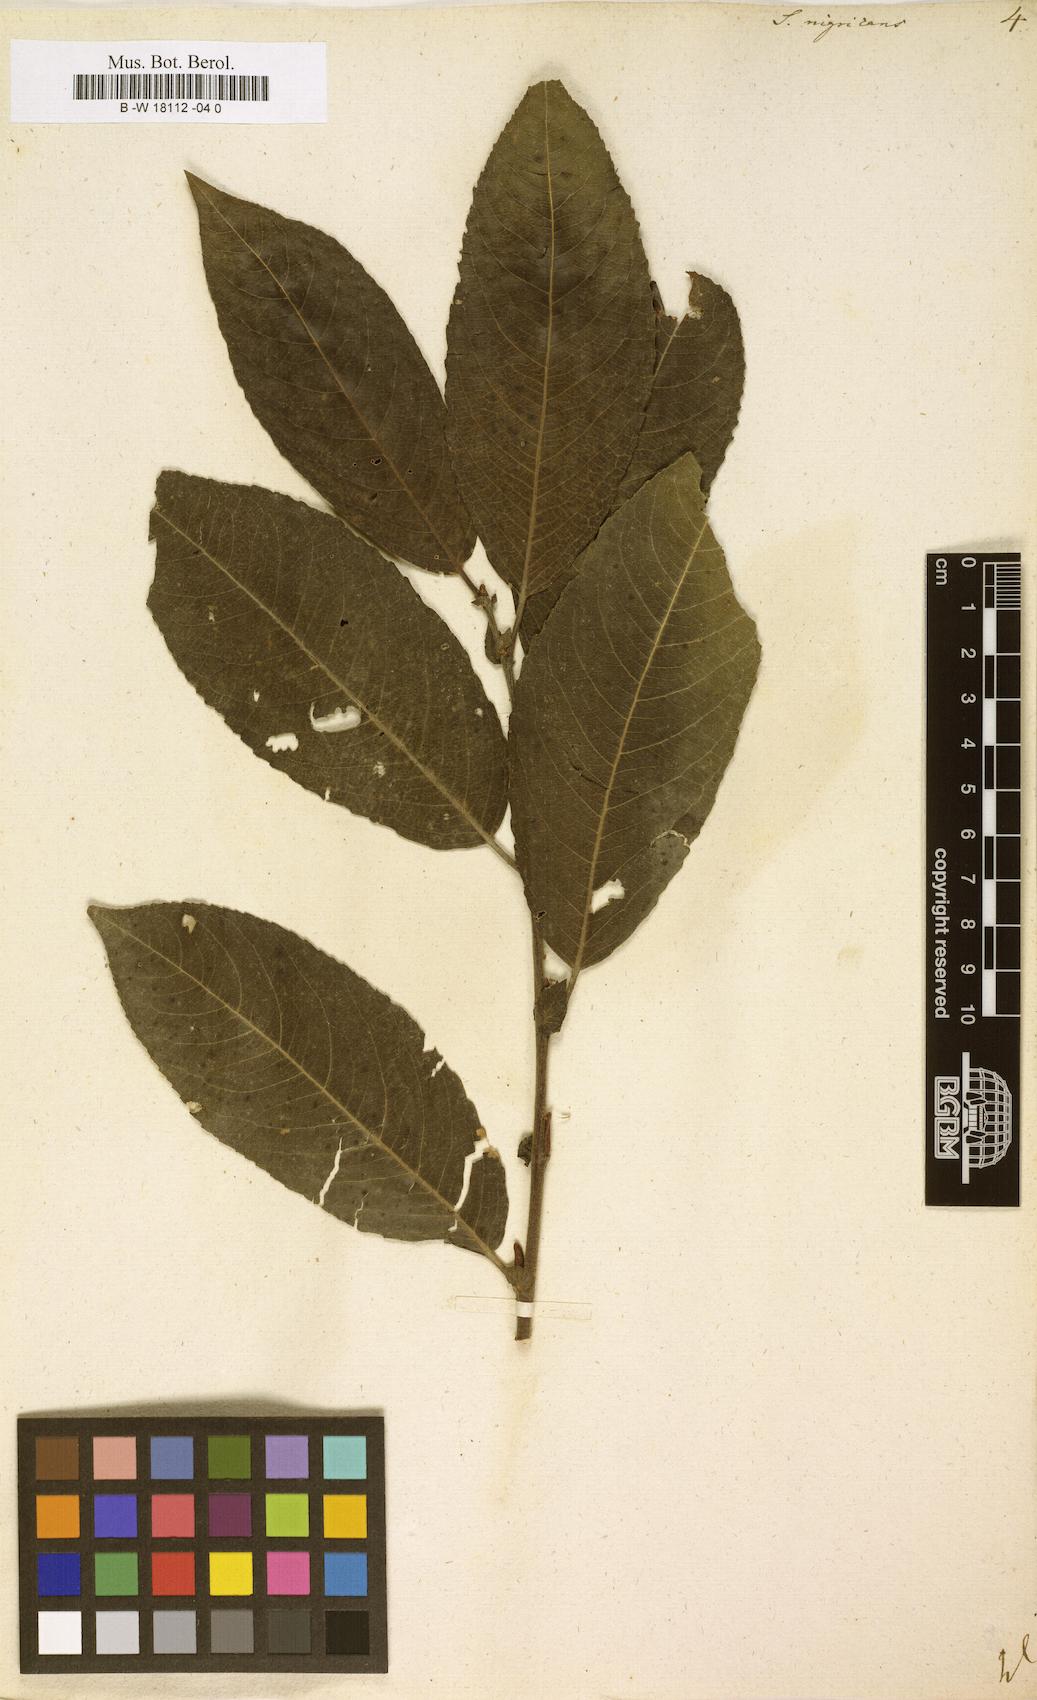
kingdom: Plantae
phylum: Tracheophyta
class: Magnoliopsida
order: Malpighiales
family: Salicaceae
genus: Salix
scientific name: Salix myrsinifolia
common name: Dark-leaved willow
